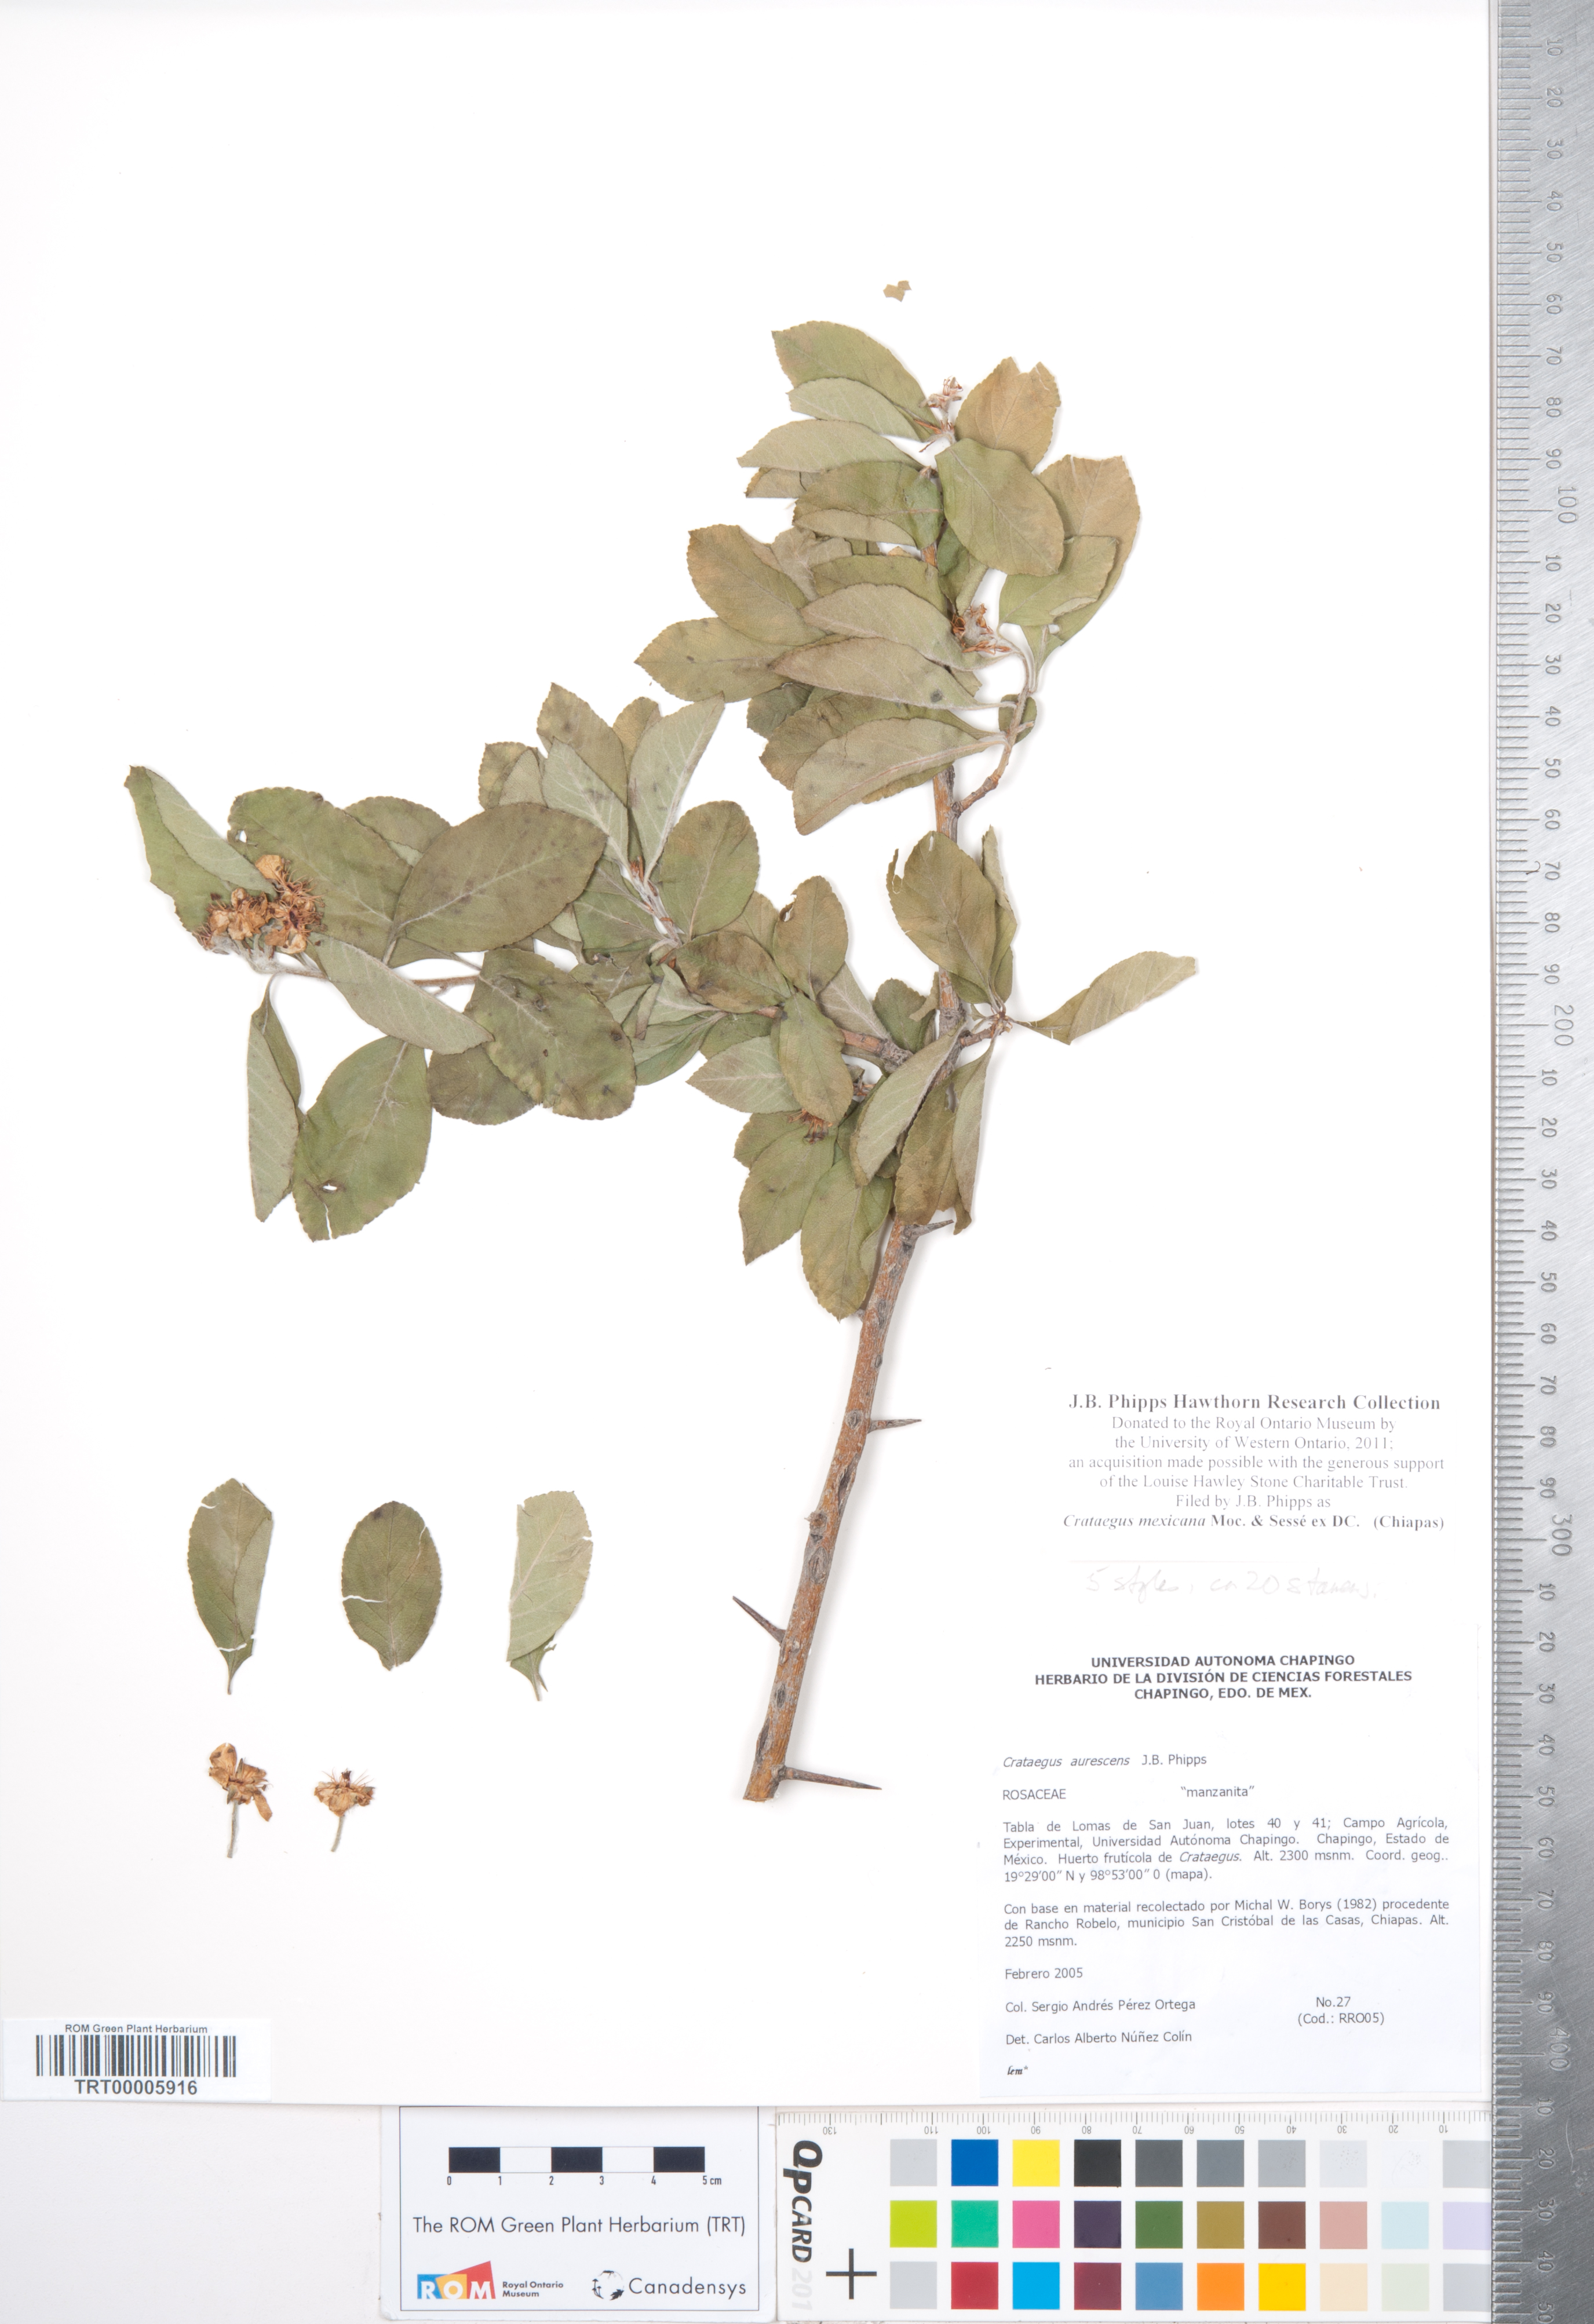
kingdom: Plantae
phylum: Tracheophyta
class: Magnoliopsida
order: Rosales
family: Rosaceae
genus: Crataegus
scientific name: Crataegus mexicana
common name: Mexican hawthorn
